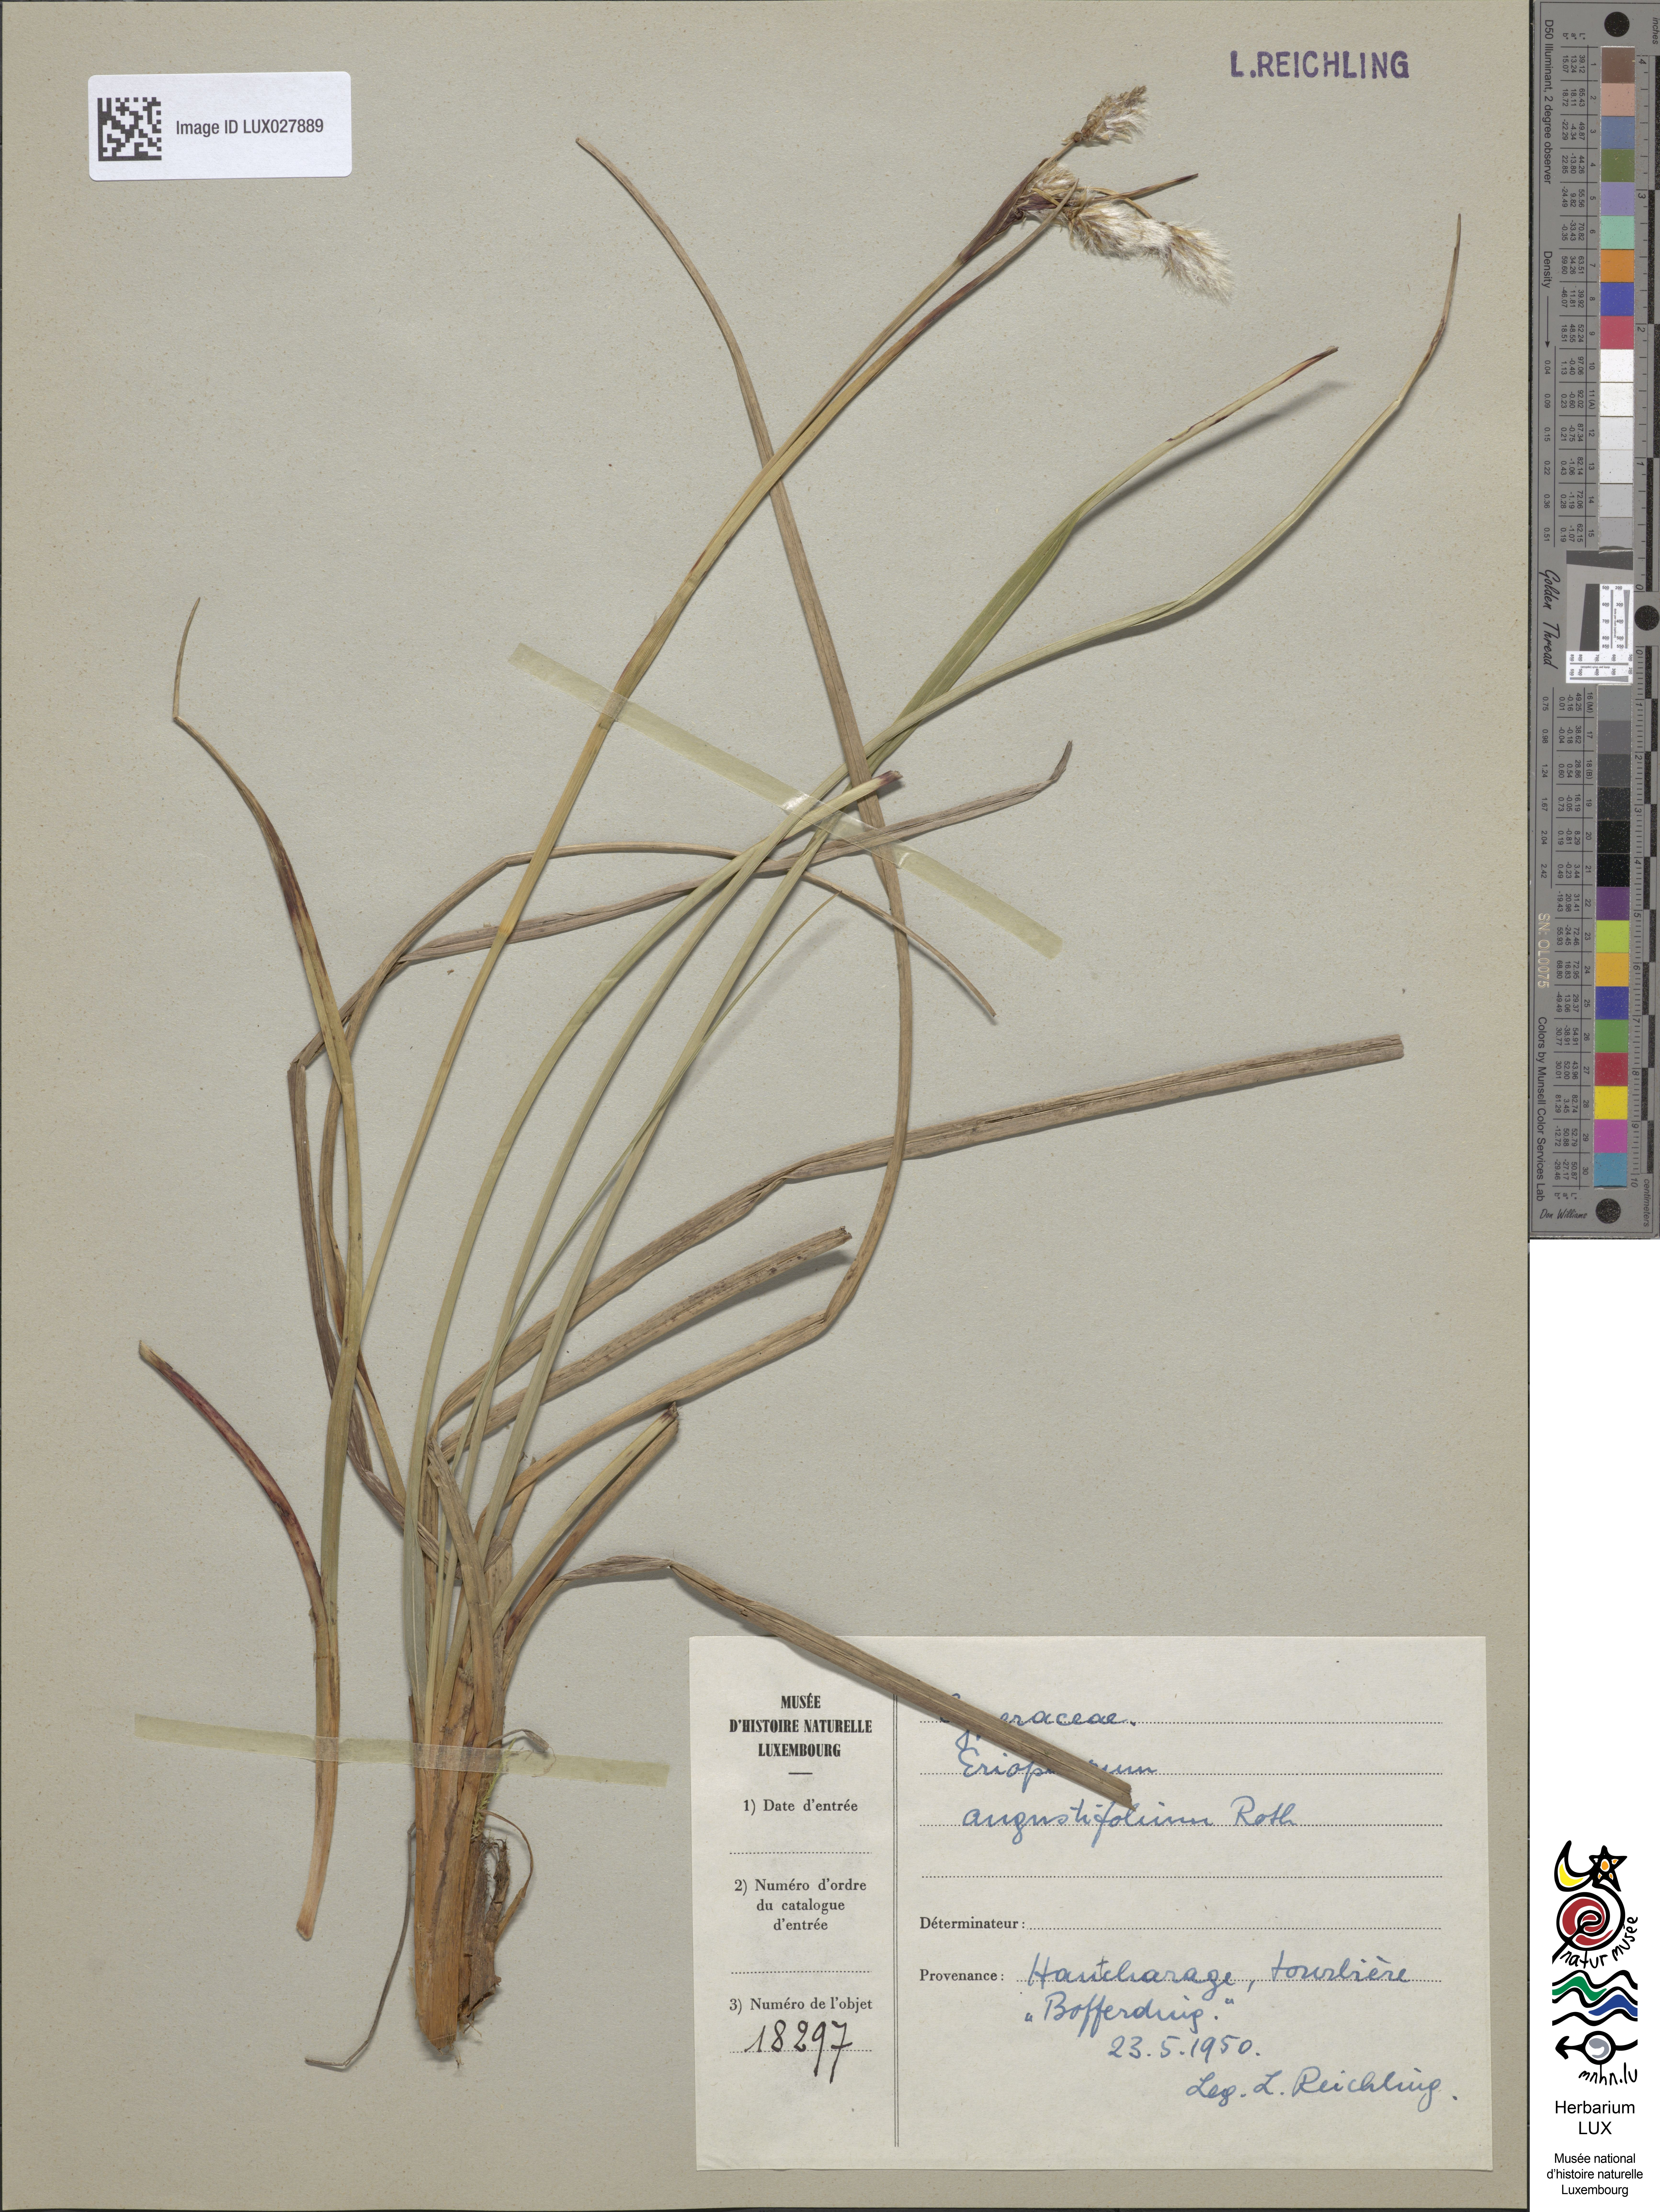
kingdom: Plantae
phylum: Tracheophyta
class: Liliopsida
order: Poales
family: Cyperaceae
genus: Eriophorum
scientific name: Eriophorum angustifolium
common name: Common cottongrass
